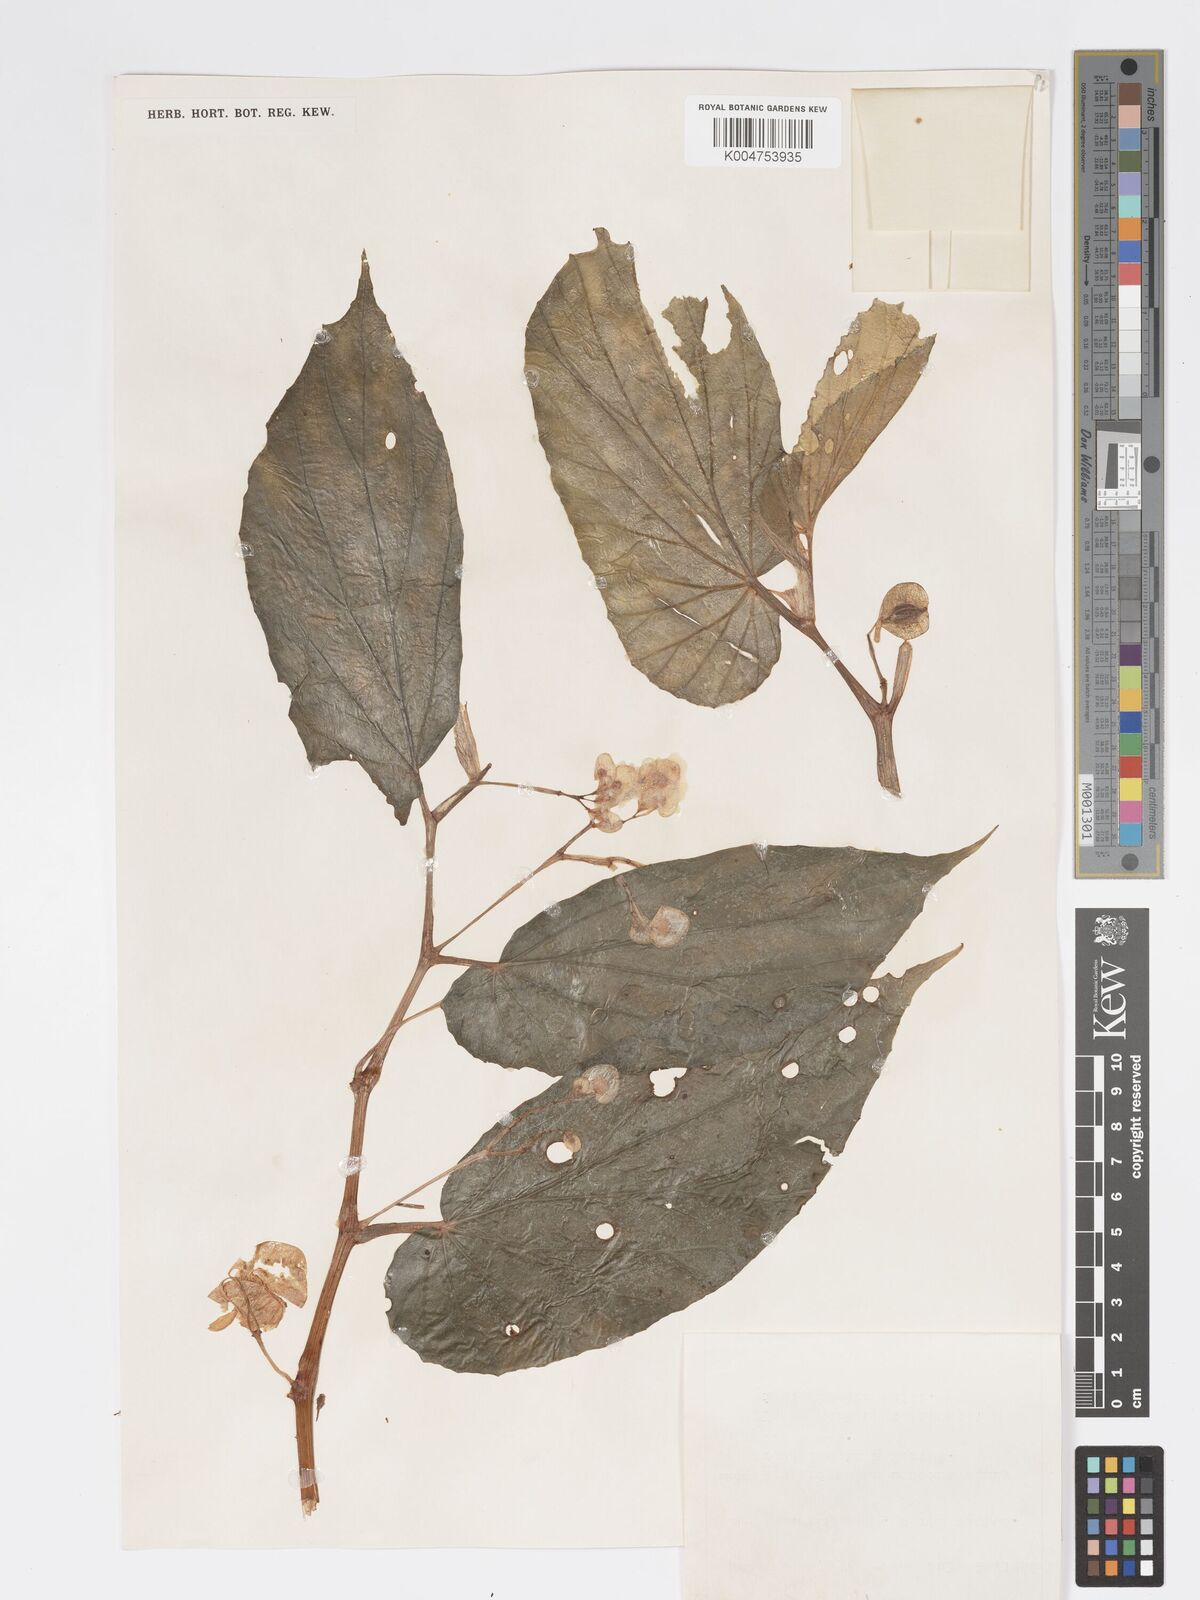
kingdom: Plantae
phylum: Tracheophyta
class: Magnoliopsida
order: Cucurbitales
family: Begoniaceae
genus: Begonia
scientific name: Begonia augustae
